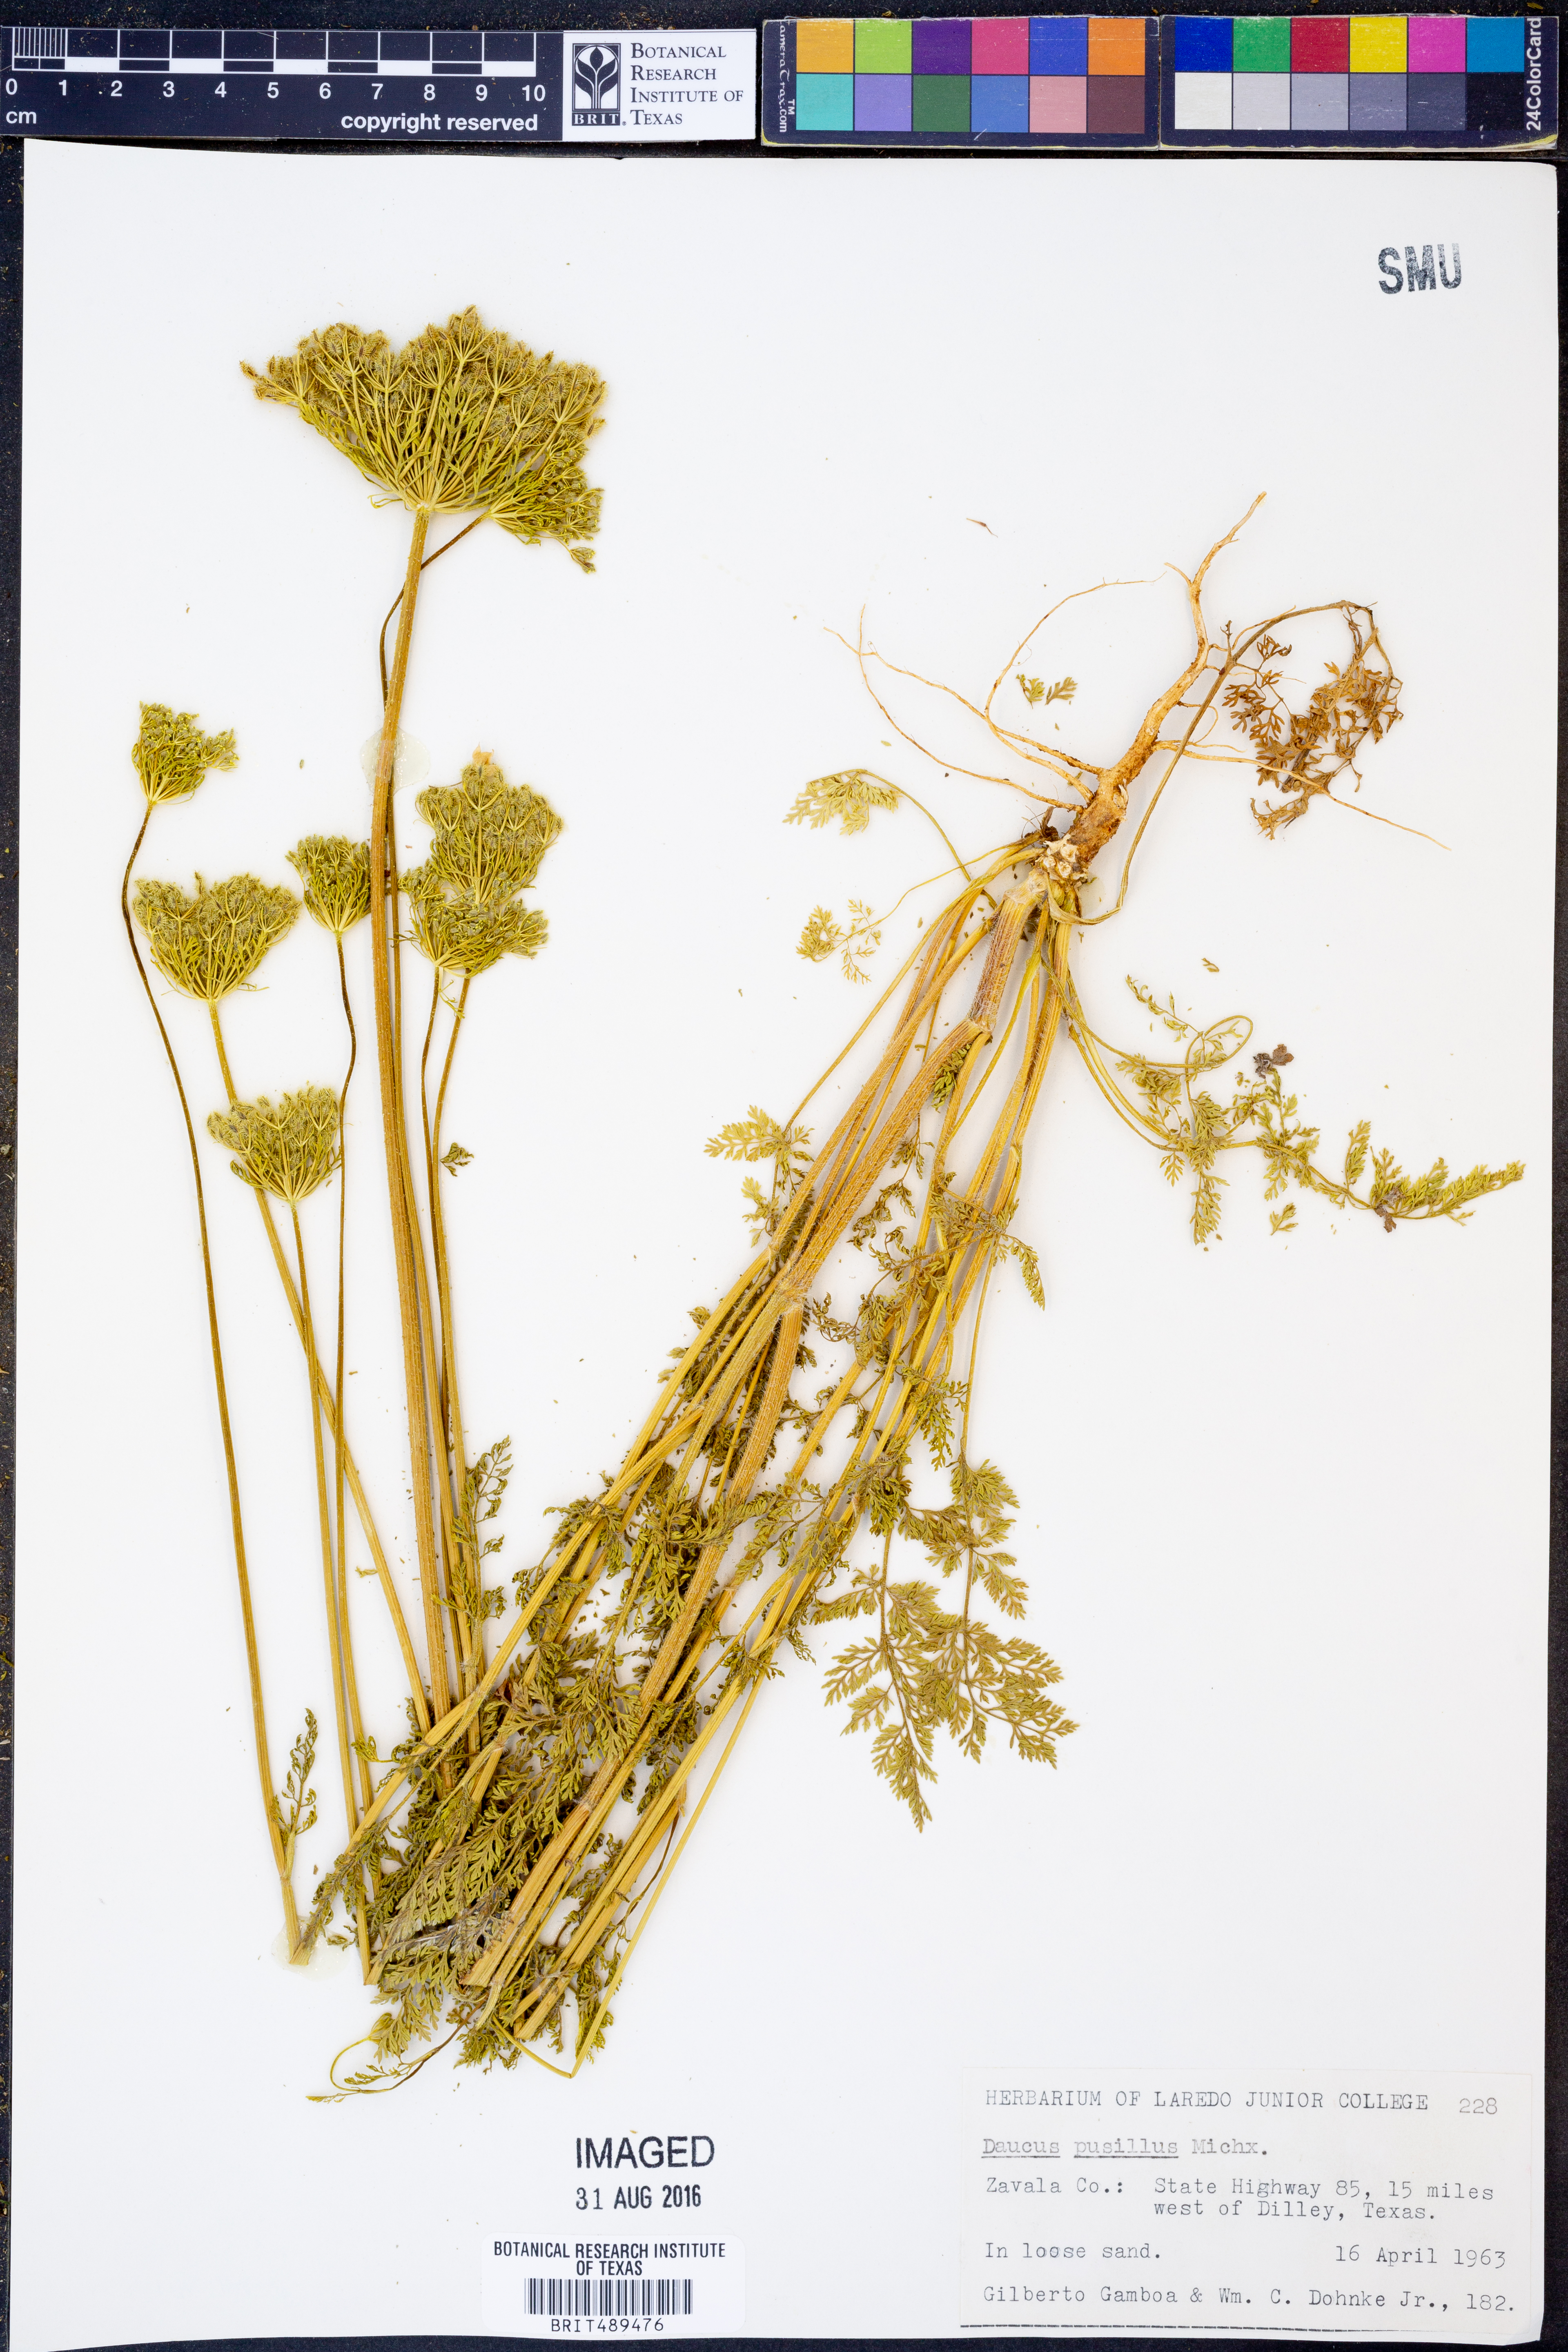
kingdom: Plantae
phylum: Tracheophyta
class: Magnoliopsida
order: Apiales
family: Apiaceae
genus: Daucus
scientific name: Daucus pusillus
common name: Southwest wild carrot
